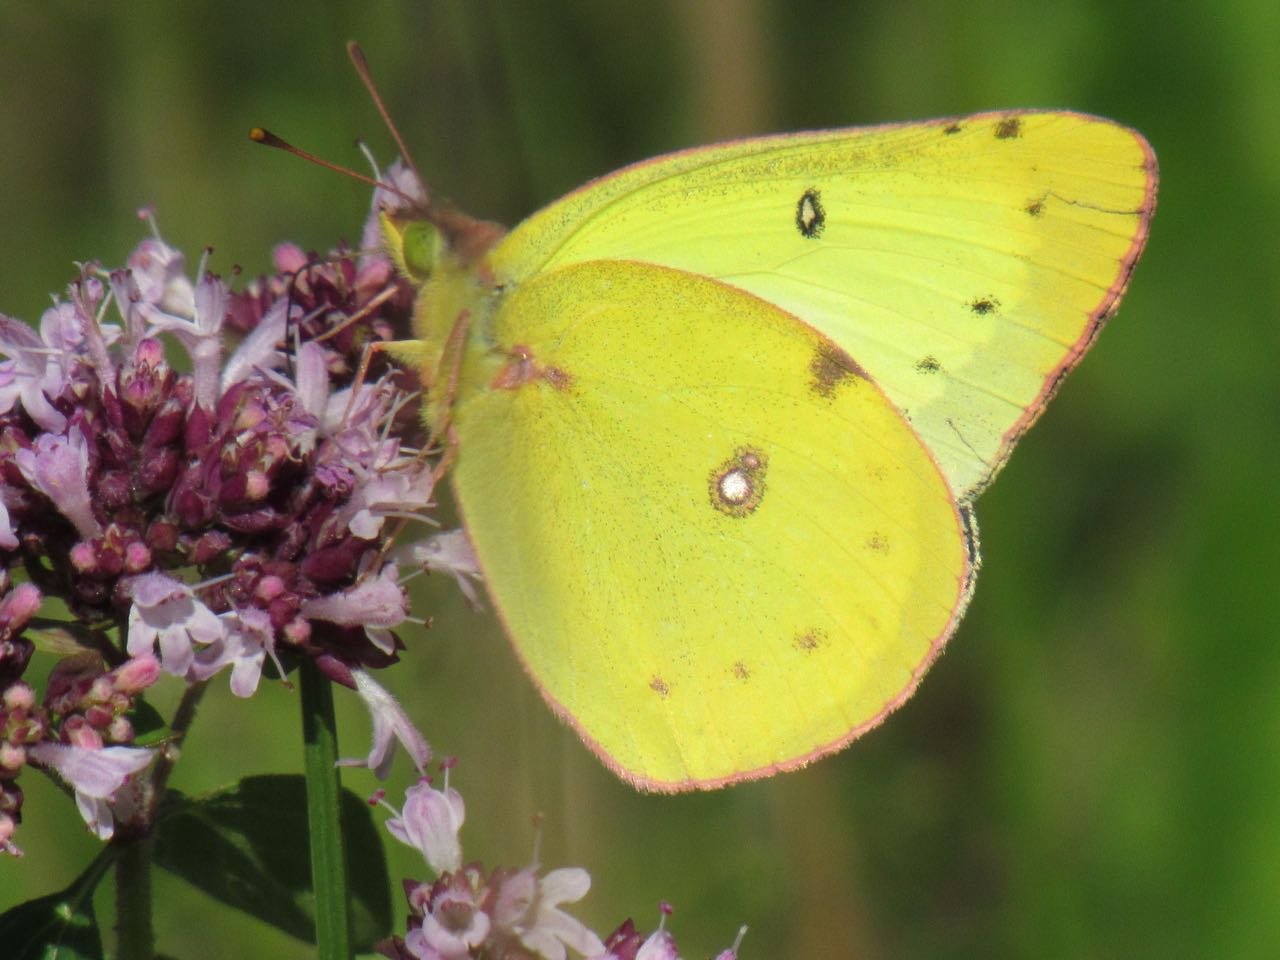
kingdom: Animalia
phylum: Arthropoda
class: Insecta
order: Lepidoptera
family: Pieridae
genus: Colias
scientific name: Colias philodice
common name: Clouded Sulphur
